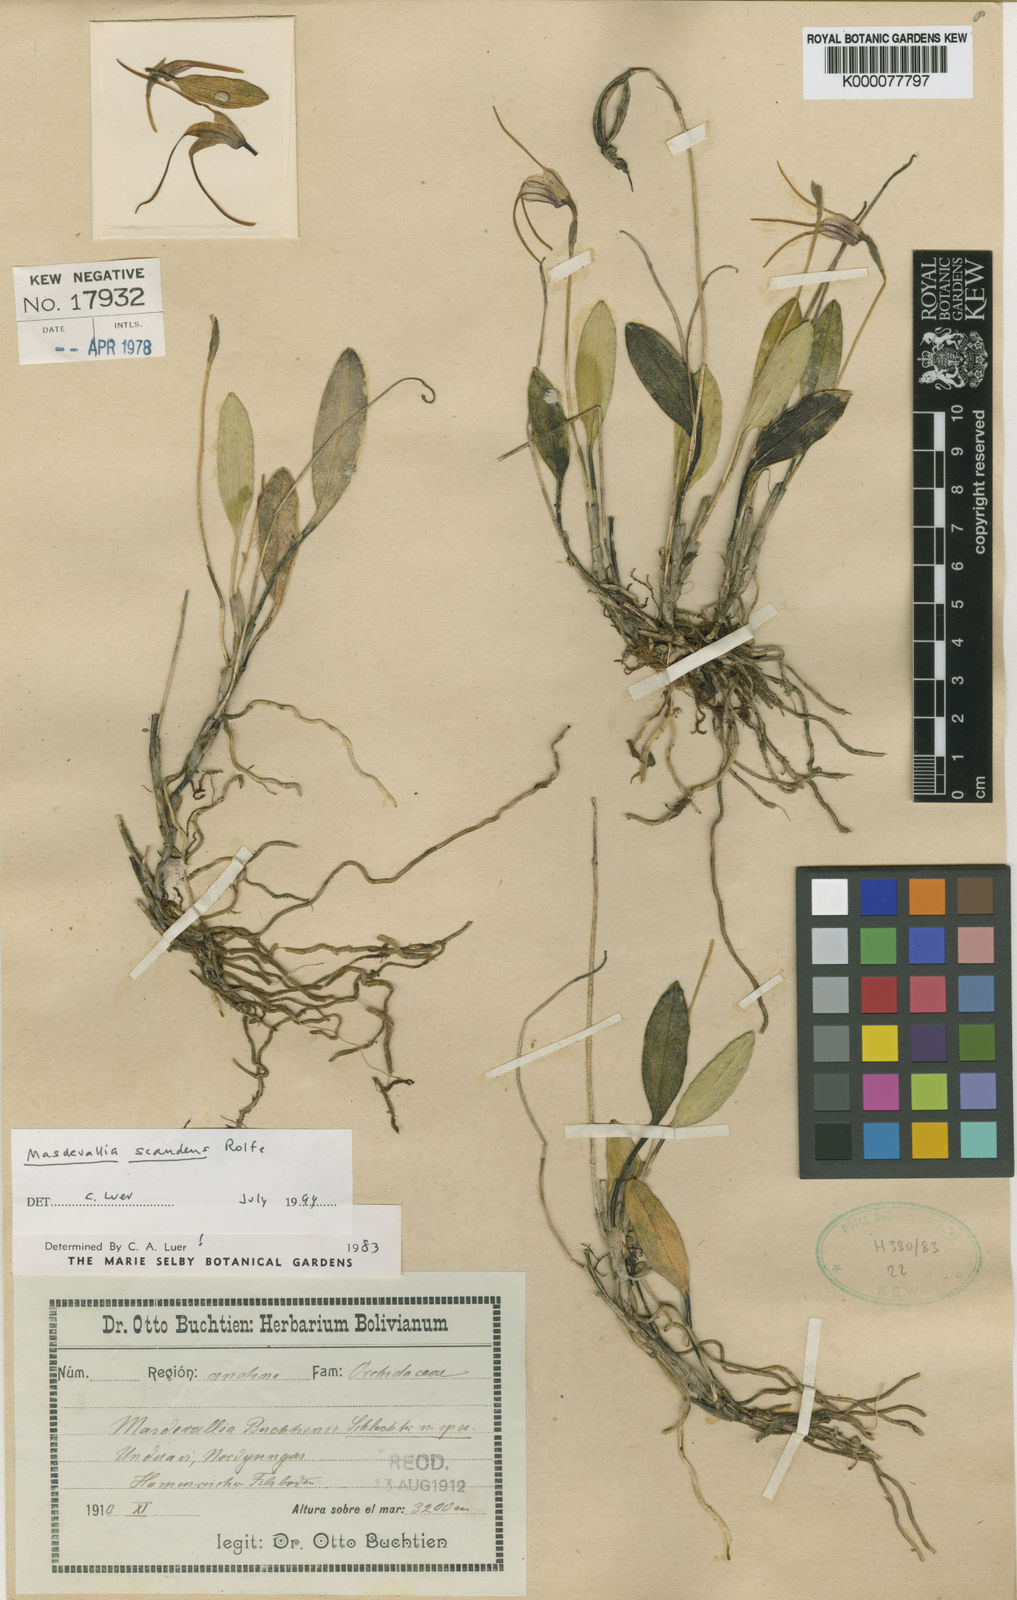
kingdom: Plantae
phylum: Tracheophyta
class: Liliopsida
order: Asparagales
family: Orchidaceae
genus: Masdevallia
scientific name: Masdevallia scandens
